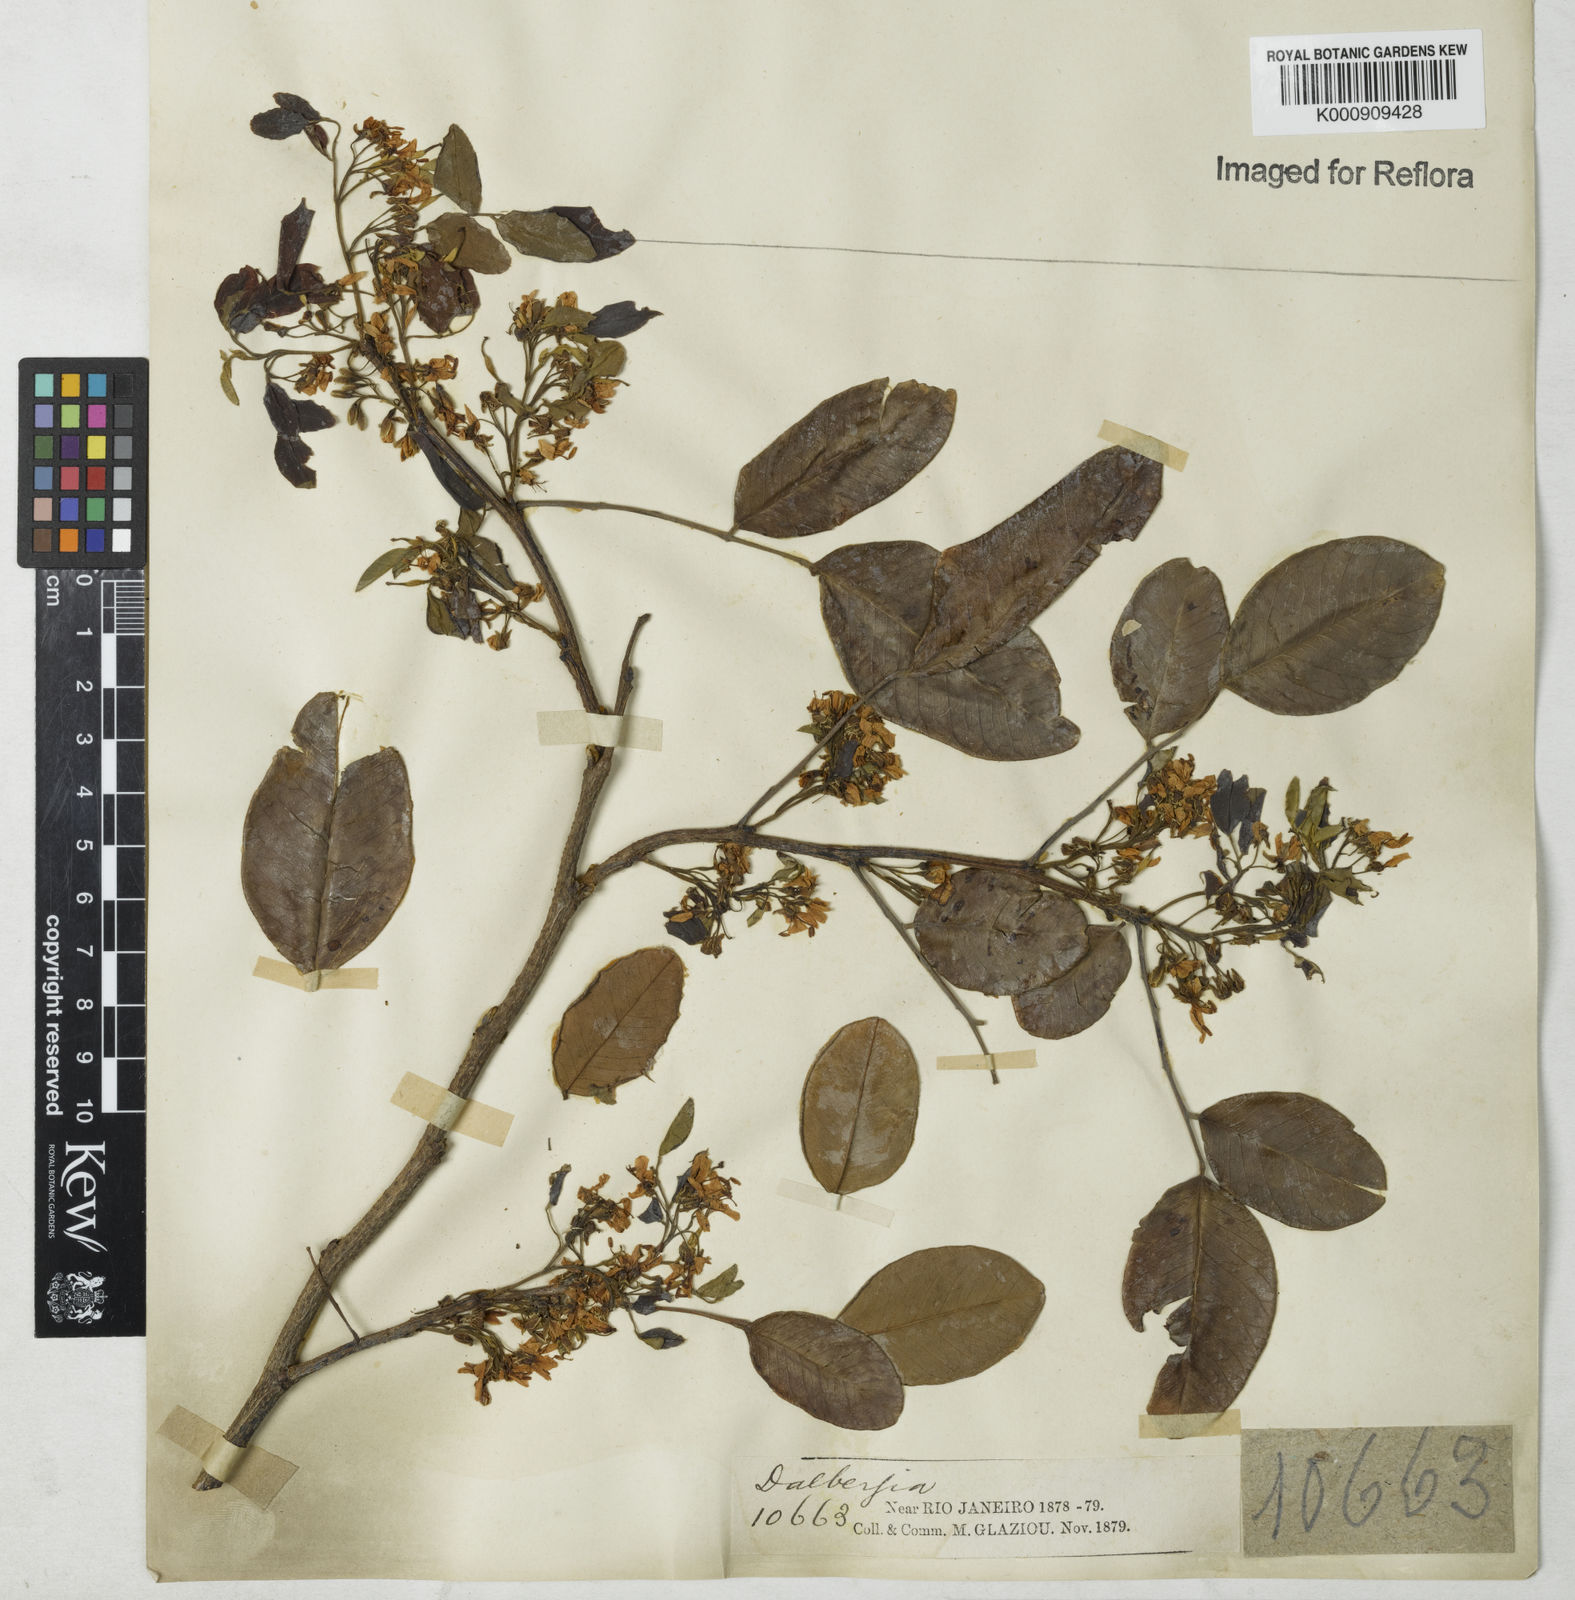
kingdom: Plantae
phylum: Tracheophyta
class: Magnoliopsida
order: Fabales
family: Fabaceae
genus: Dalbergia
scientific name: Dalbergia
